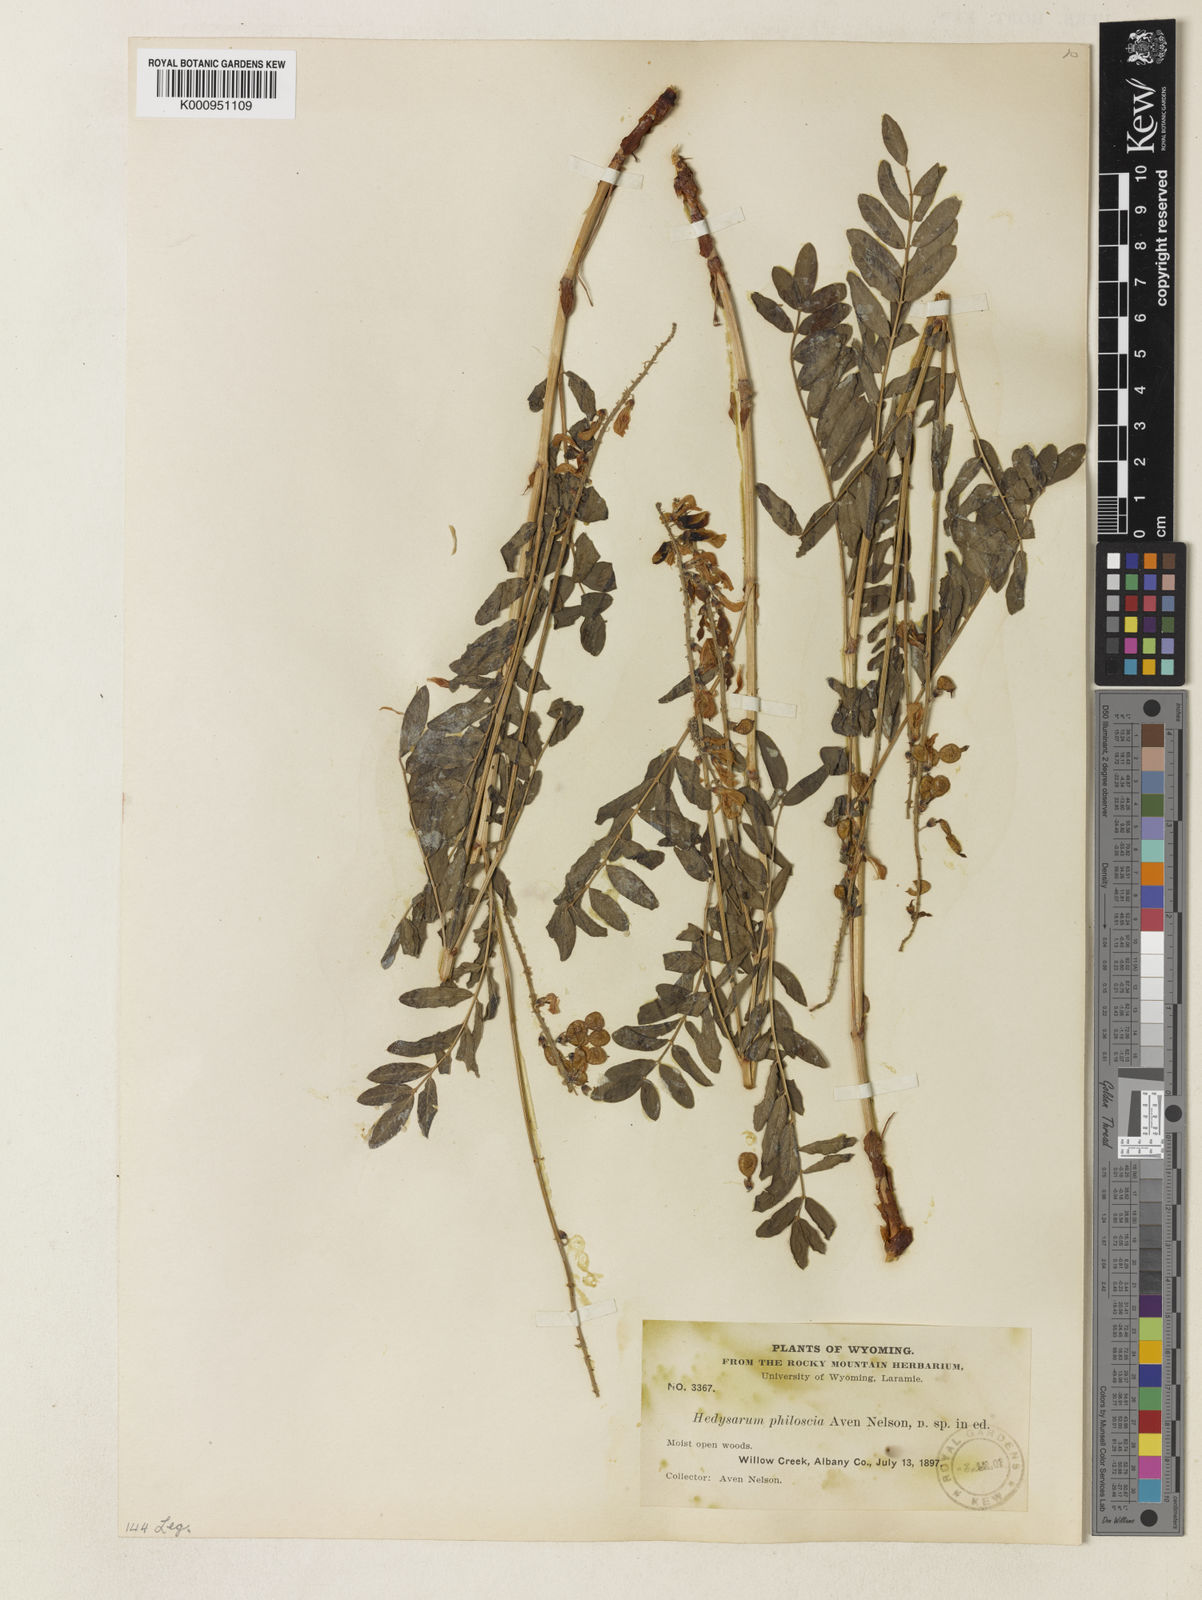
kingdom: Plantae
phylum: Tracheophyta
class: Magnoliopsida
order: Fabales
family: Fabaceae
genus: Hedysarum
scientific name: Hedysarum alpinum
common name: Alpine sweet-vetch
